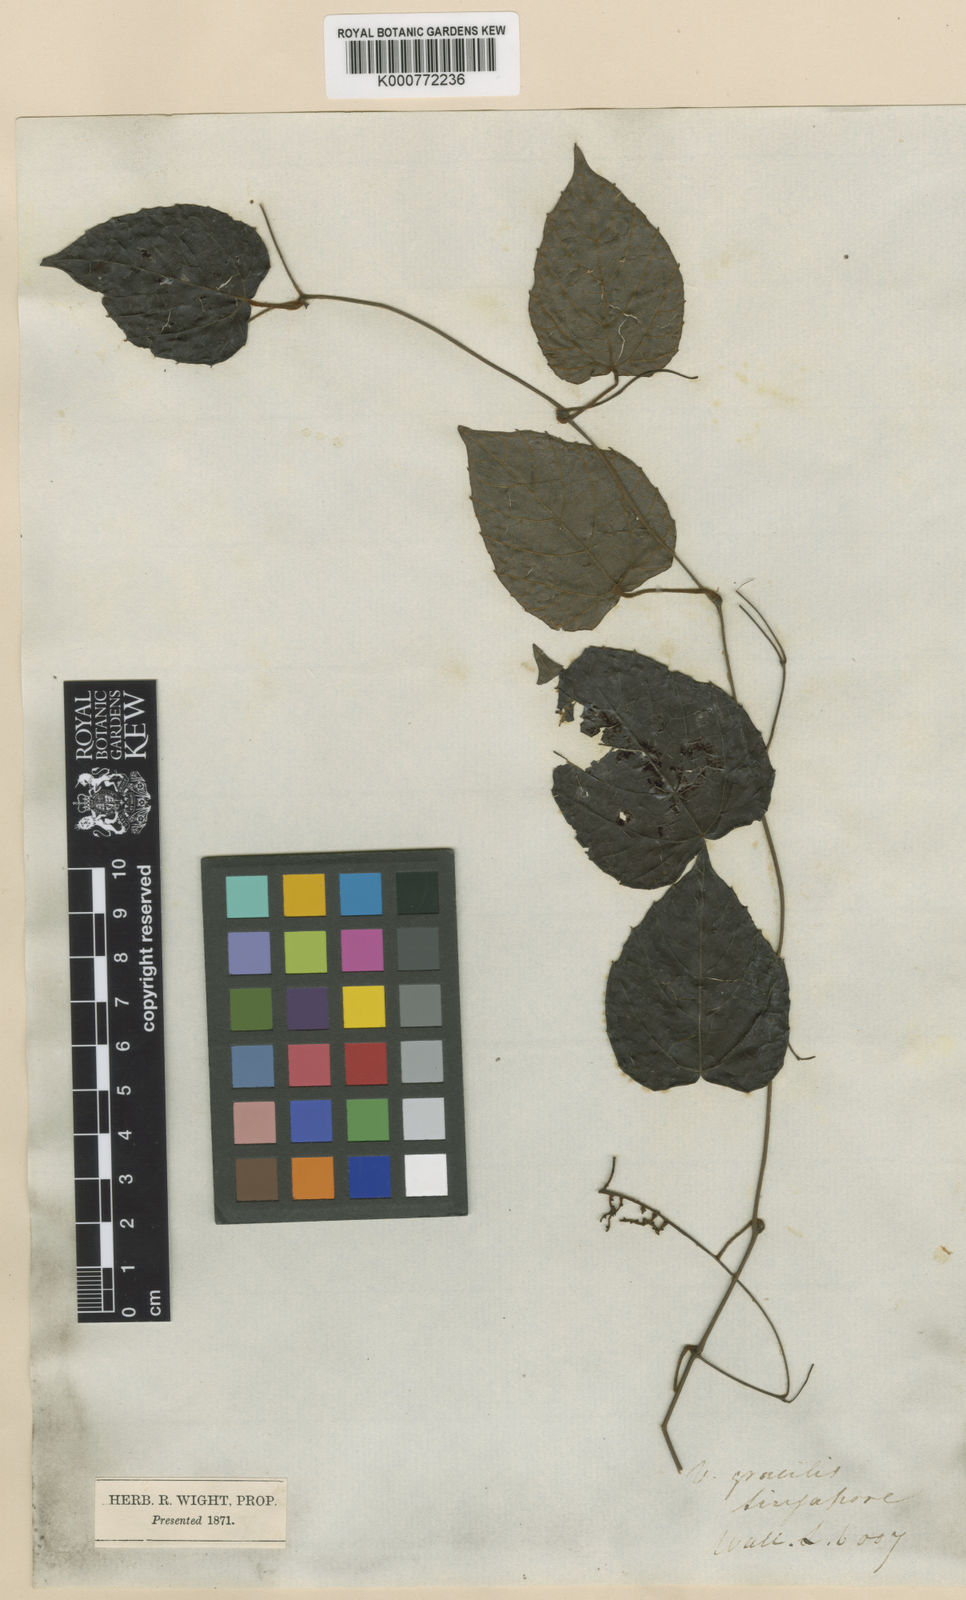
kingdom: Plantae
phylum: Tracheophyta
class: Magnoliopsida
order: Vitales
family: Vitaceae
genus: Ampelocissus
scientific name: Ampelocissus gracilis
